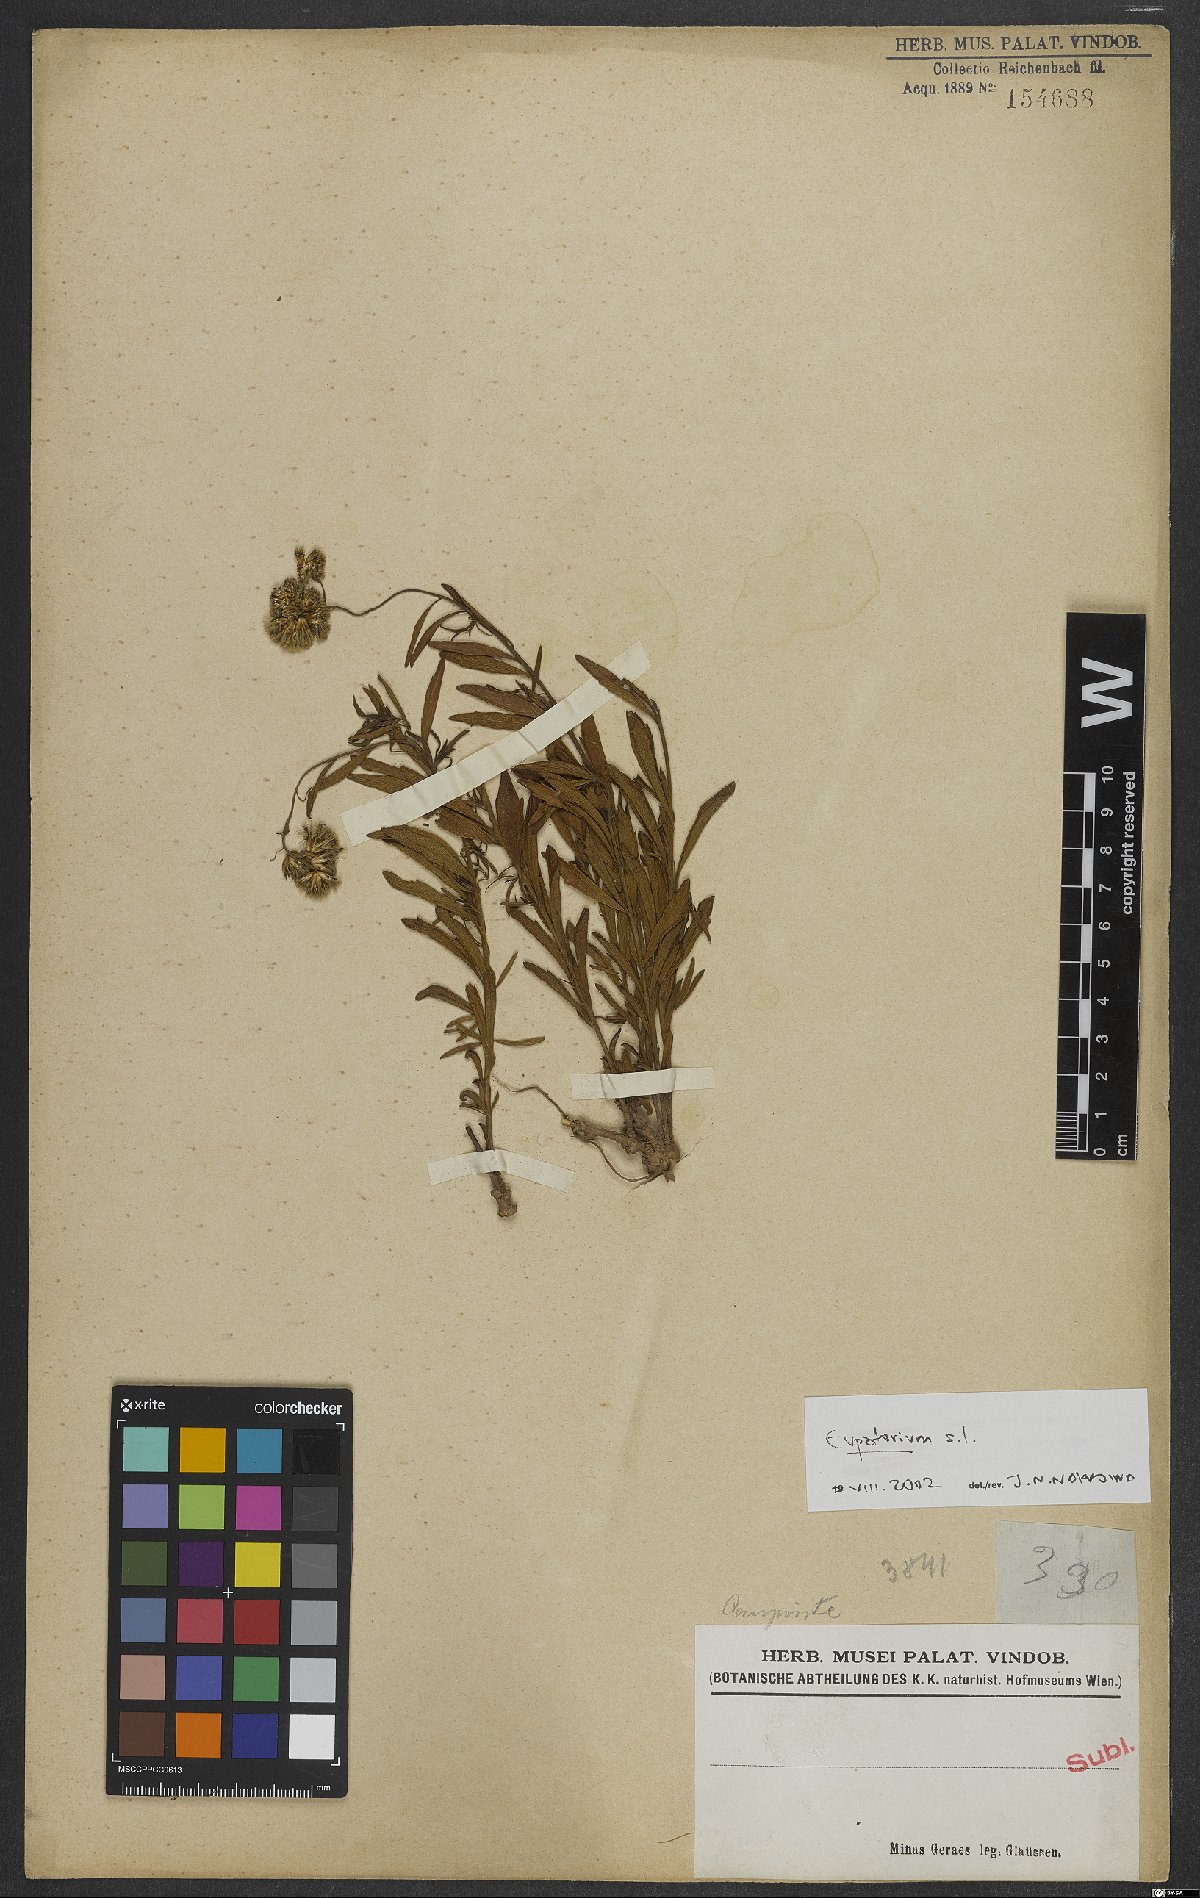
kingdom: Plantae
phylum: Tracheophyta
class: Magnoliopsida
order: Asterales
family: Asteraceae
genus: Eupatorium
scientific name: Eupatorium
